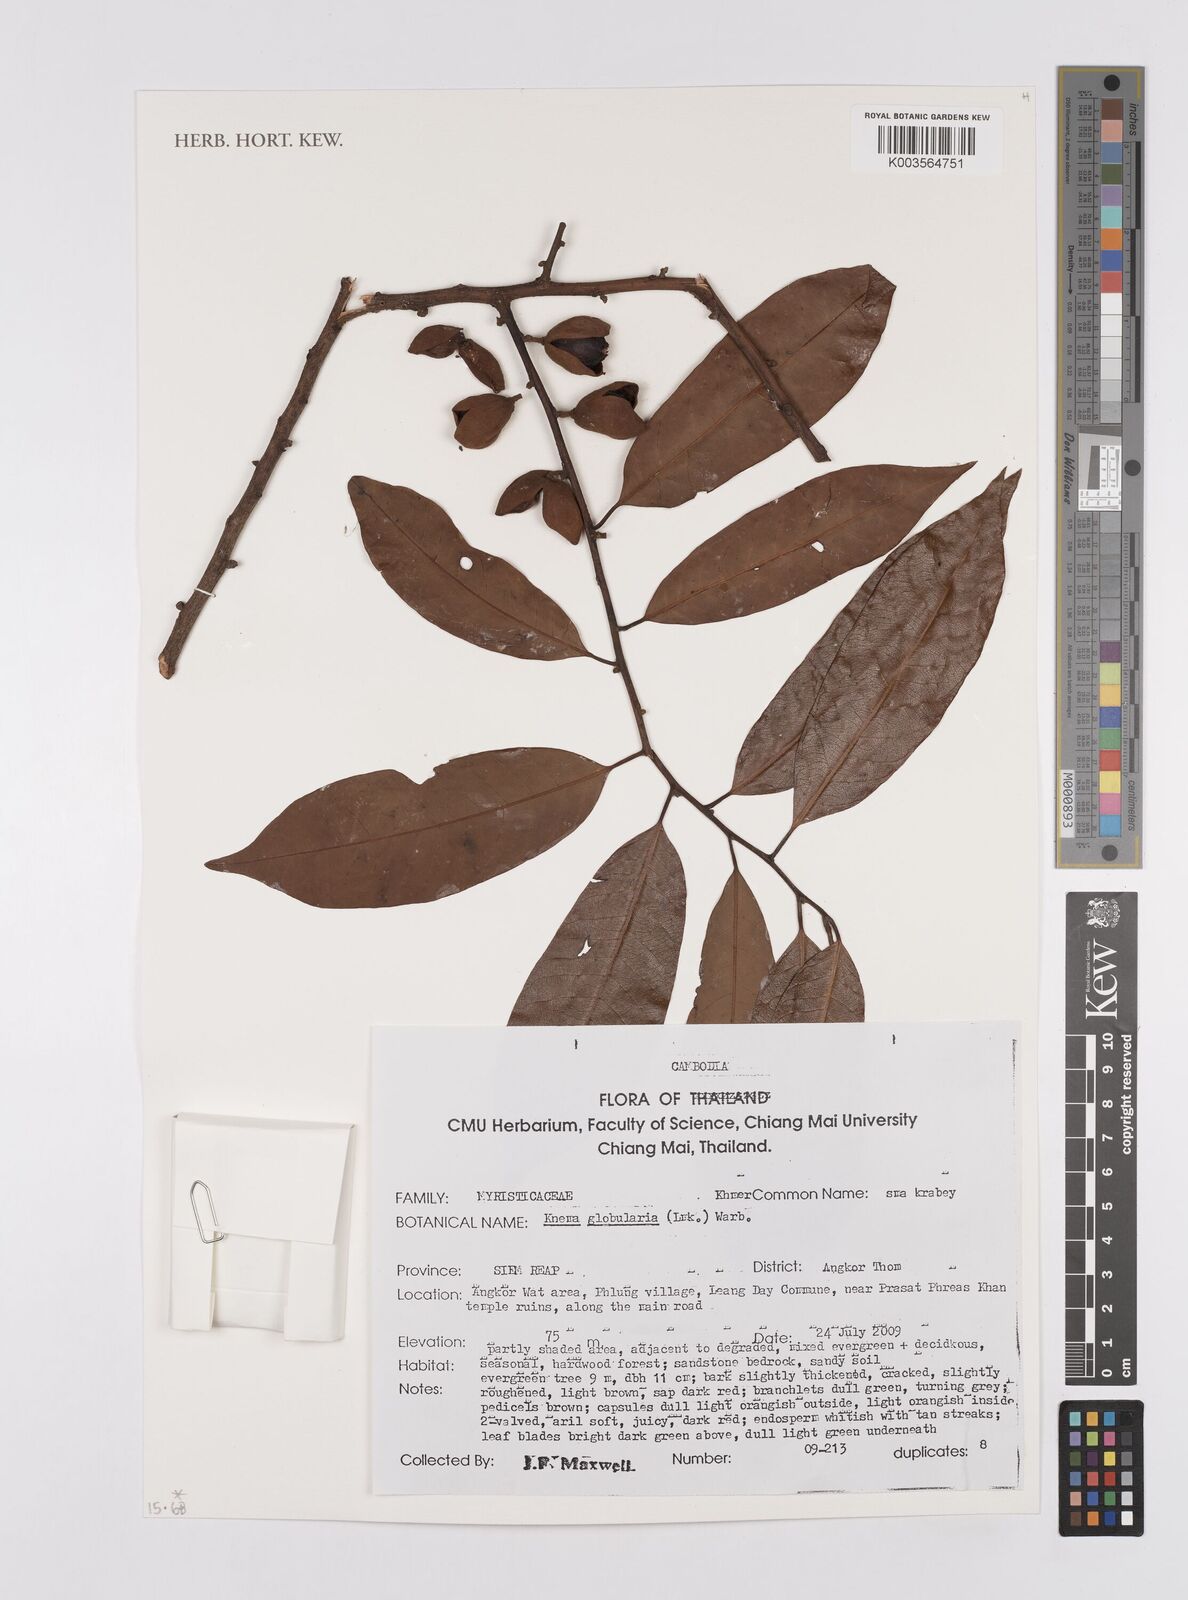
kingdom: Plantae
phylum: Tracheophyta
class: Magnoliopsida
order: Magnoliales
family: Myristicaceae
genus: Knema
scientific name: Knema globularia
